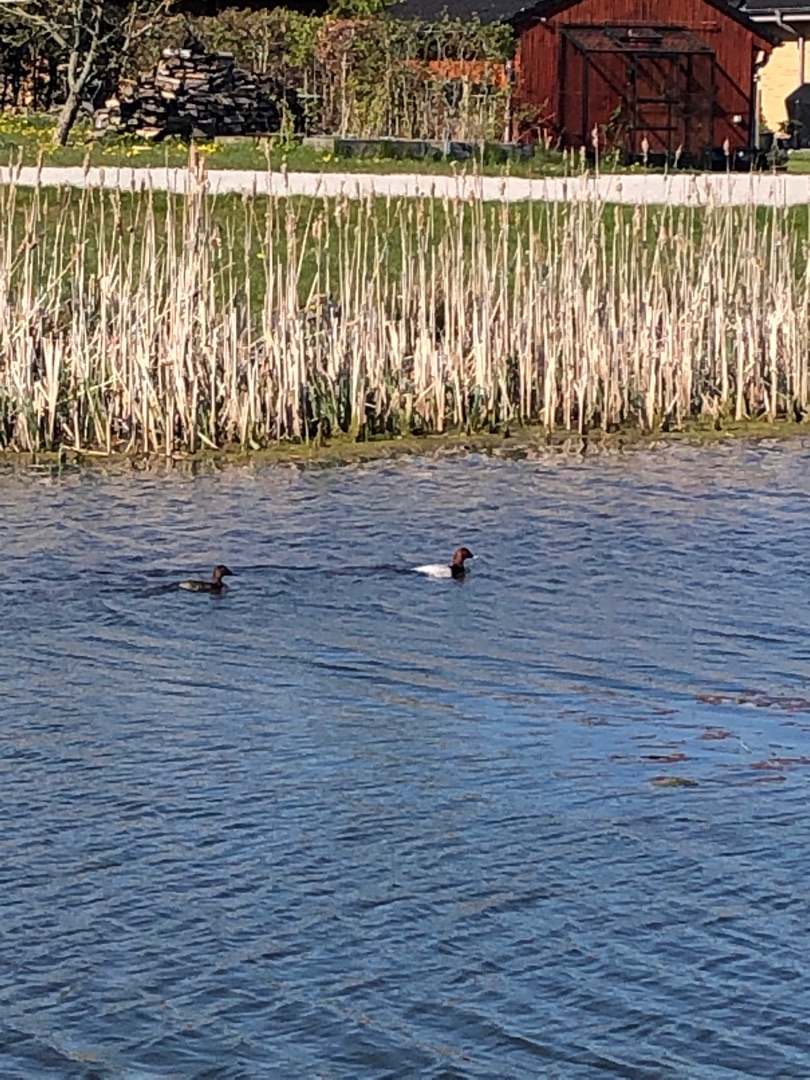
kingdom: Animalia
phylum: Chordata
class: Aves
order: Anseriformes
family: Anatidae
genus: Aythya
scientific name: Aythya ferina
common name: Taffeland
